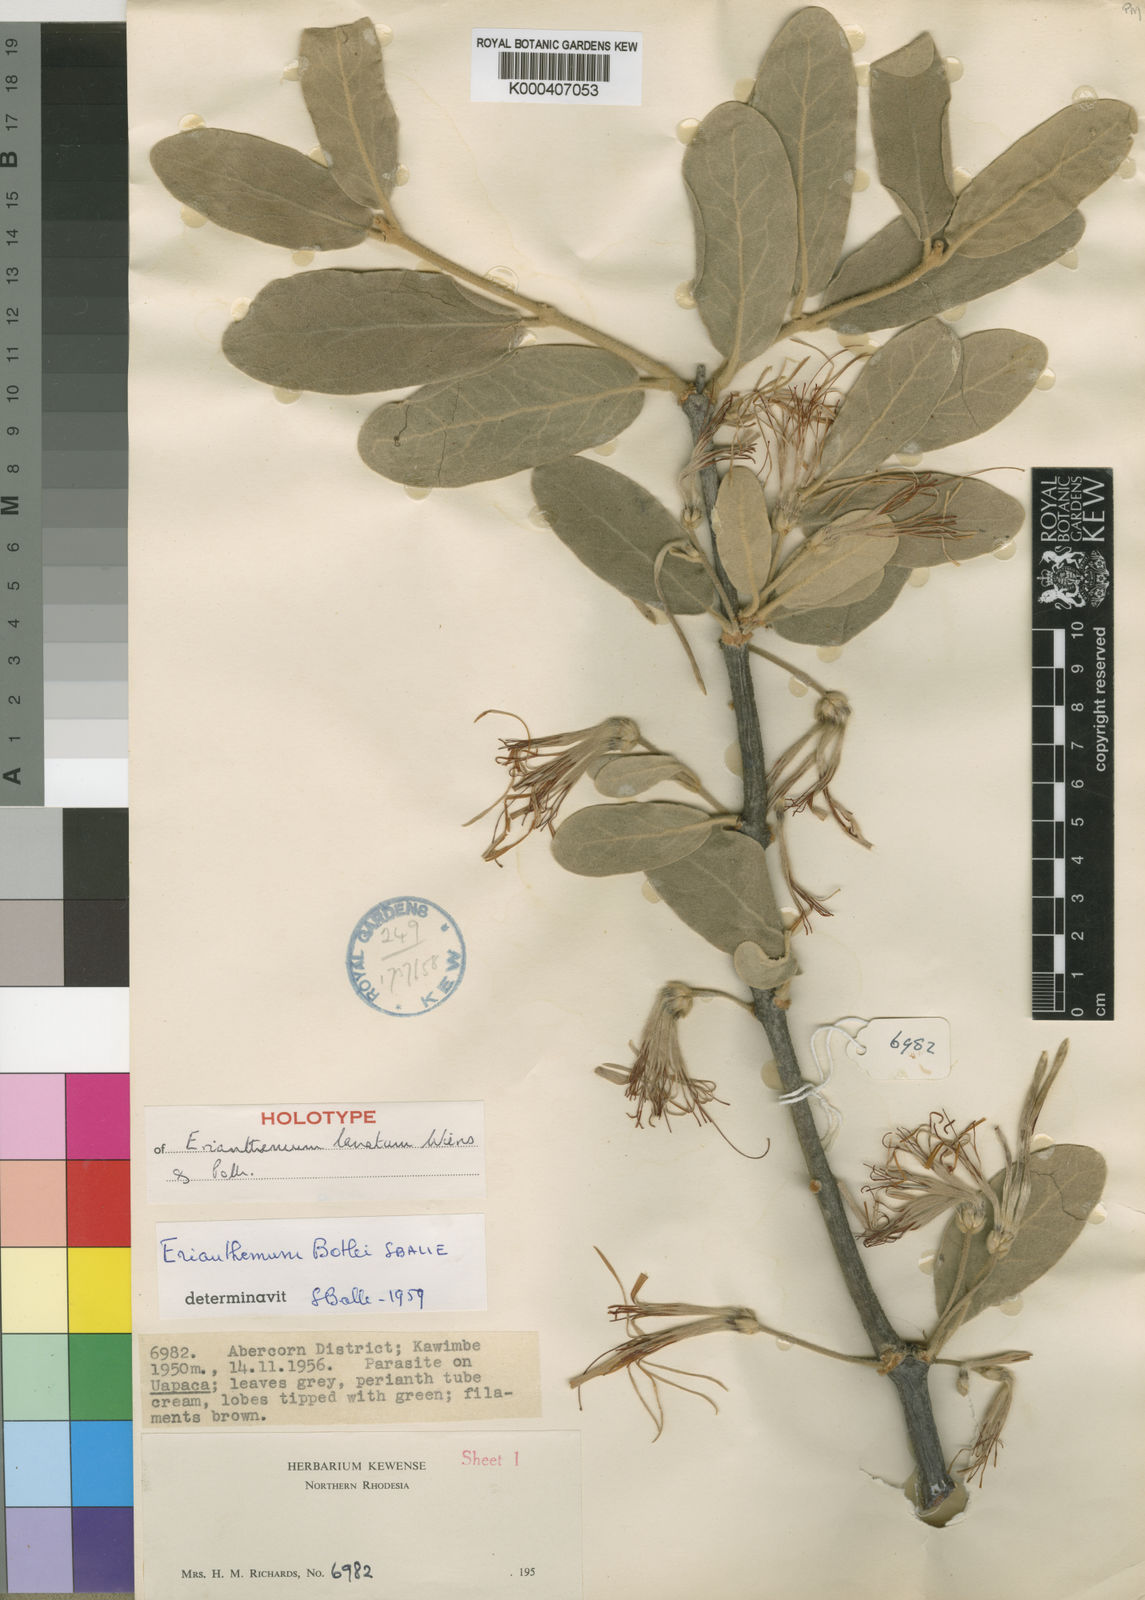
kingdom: Plantae
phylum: Tracheophyta
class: Magnoliopsida
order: Santalales
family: Loranthaceae
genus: Erianthemum
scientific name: Erianthemum lanatum
